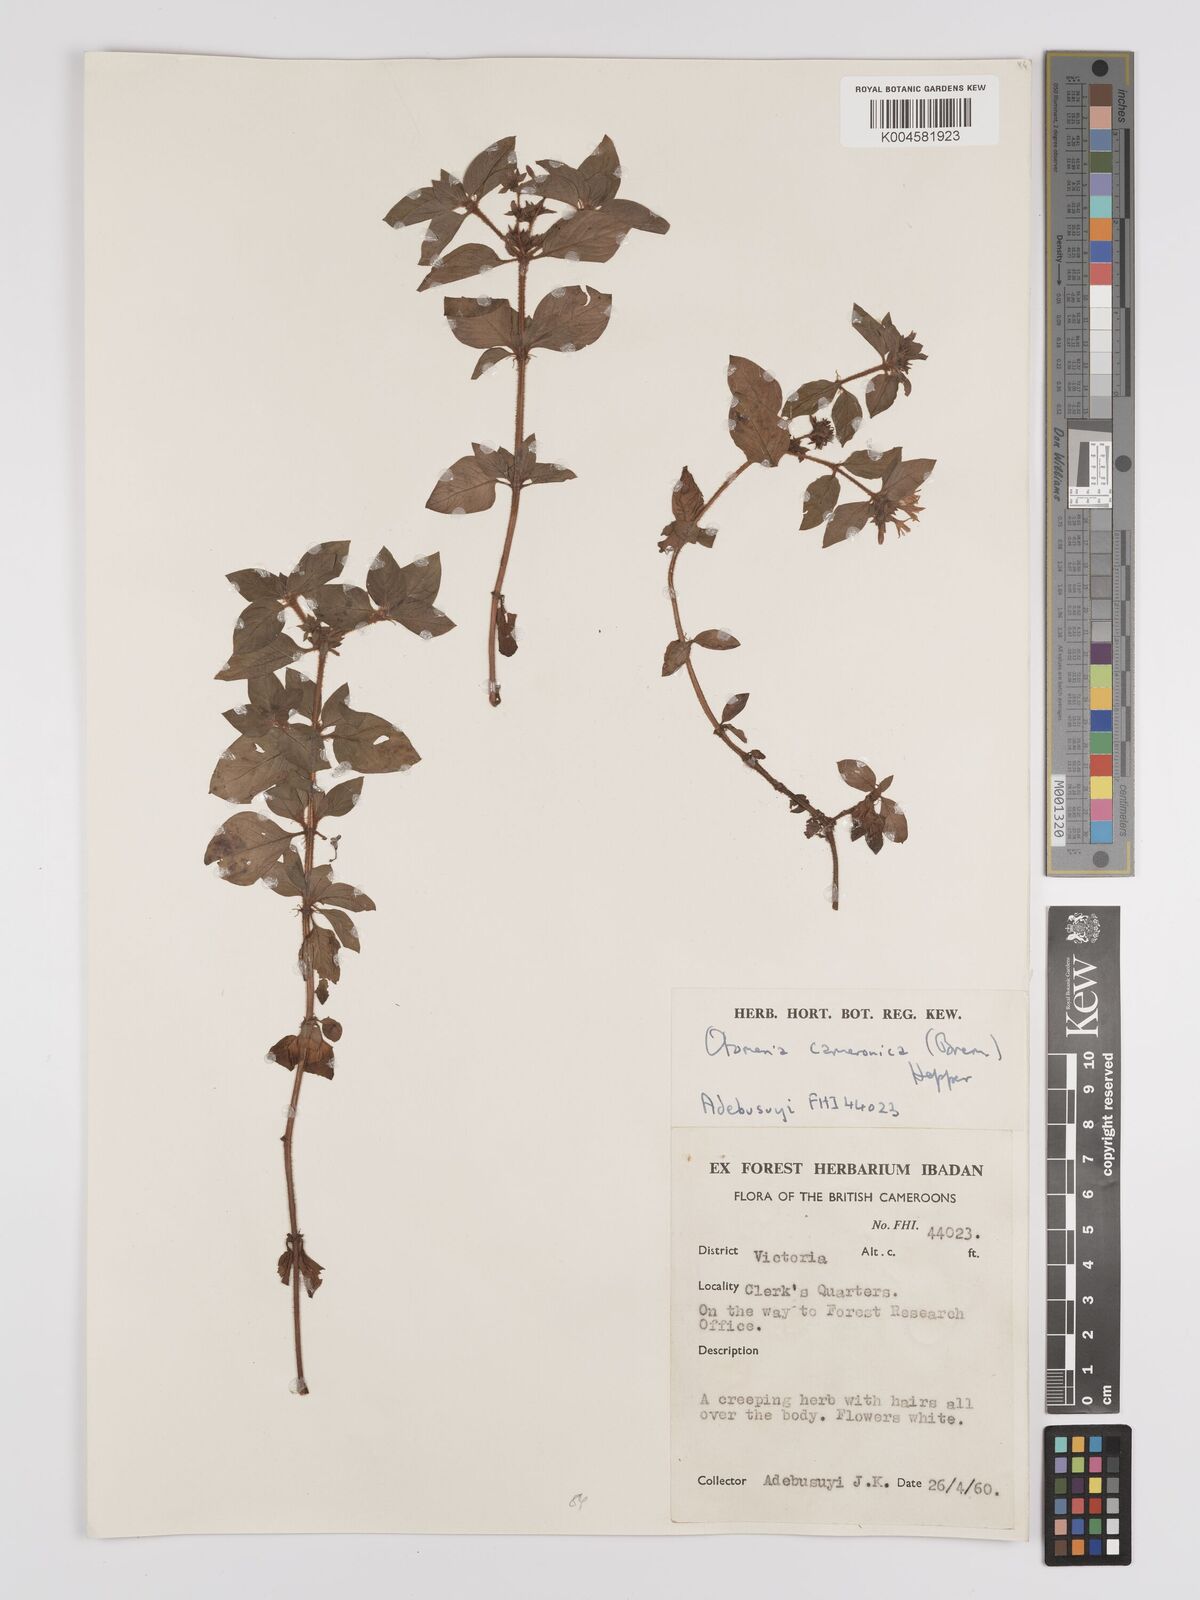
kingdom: Plantae
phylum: Tracheophyta
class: Magnoliopsida
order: Gentianales
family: Rubiaceae
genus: Otomeria
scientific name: Otomeria cameronica
